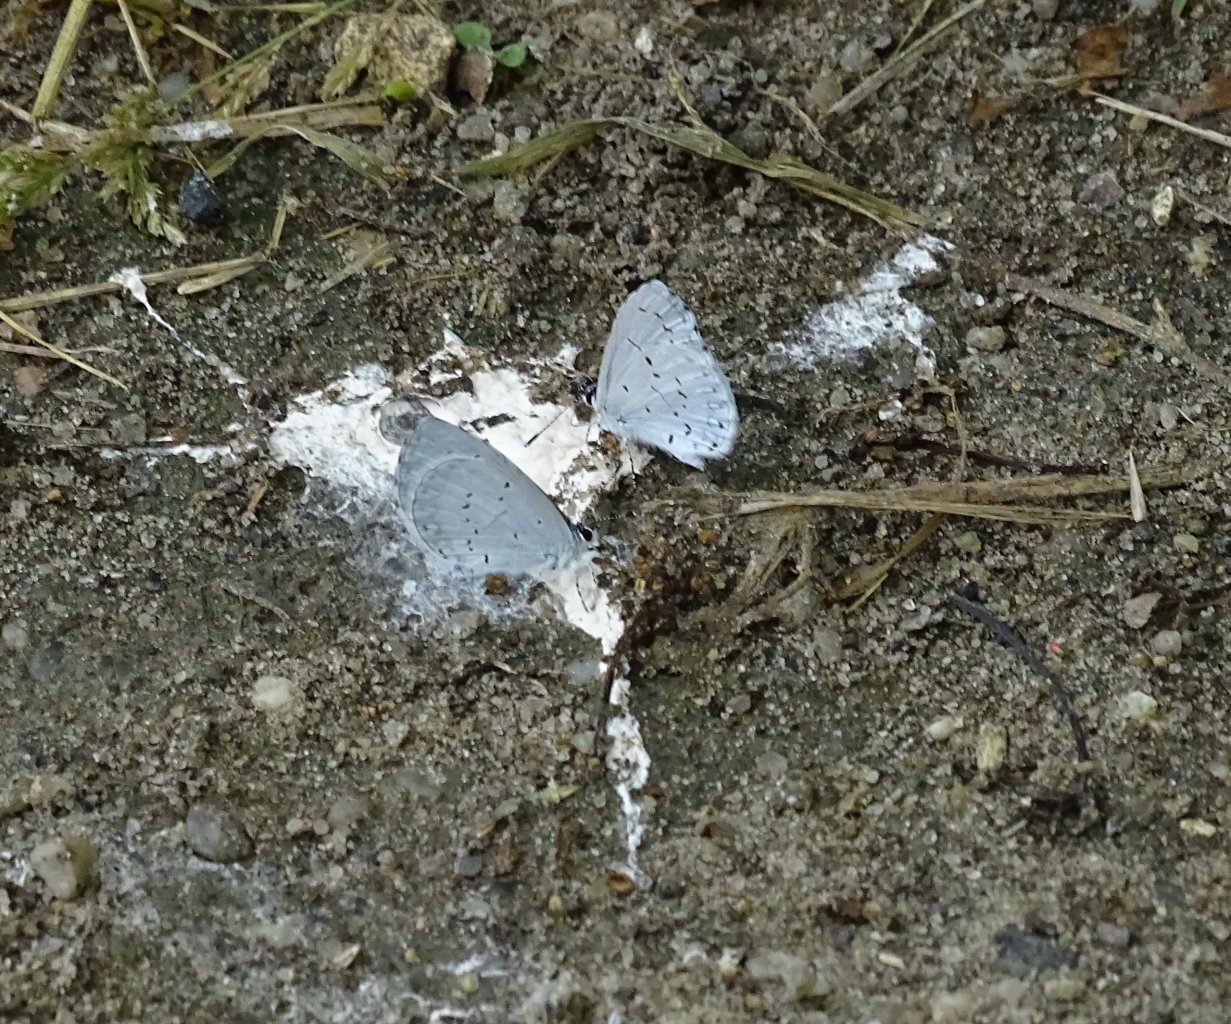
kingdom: Animalia
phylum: Arthropoda
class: Insecta
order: Lepidoptera
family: Lycaenidae
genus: Cyaniris
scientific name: Cyaniris neglecta
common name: Summer Azure
